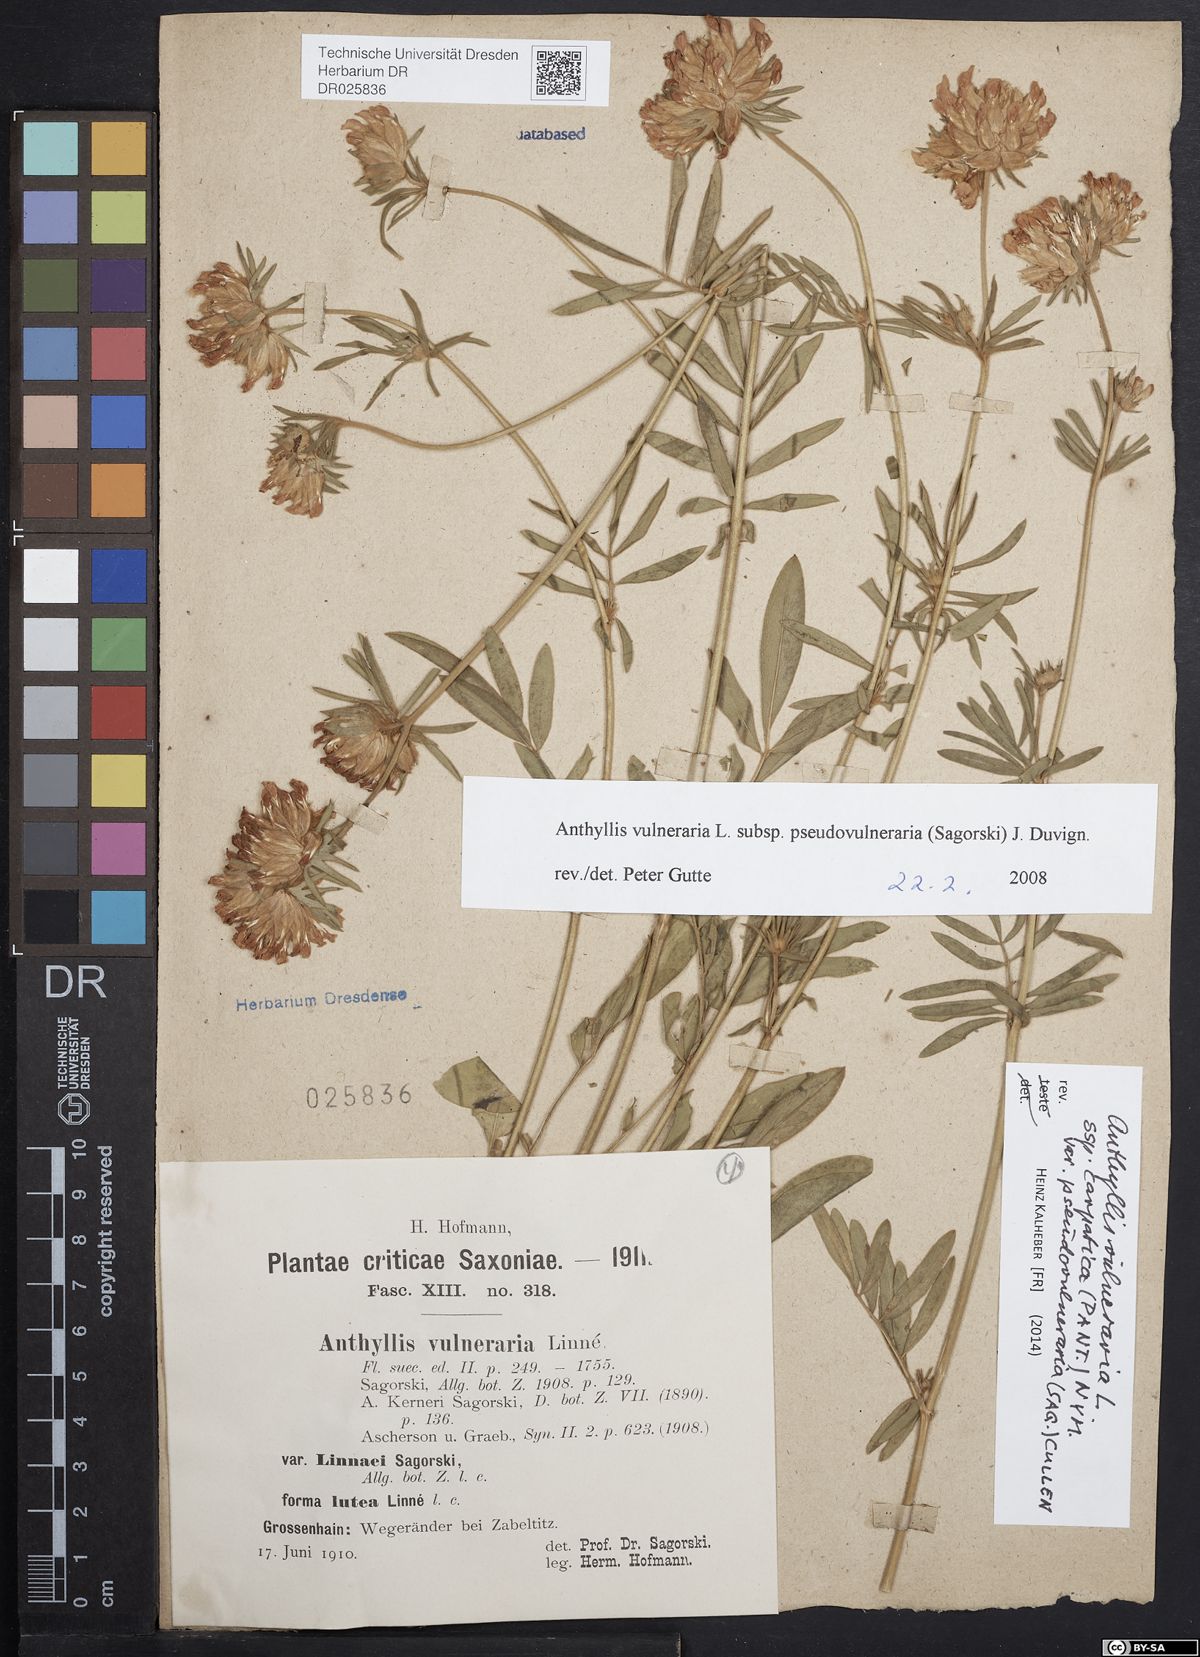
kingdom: Plantae
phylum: Tracheophyta
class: Magnoliopsida
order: Fabales
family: Fabaceae
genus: Anthyllis
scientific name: Anthyllis vulneraria
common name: Kidney vetch
